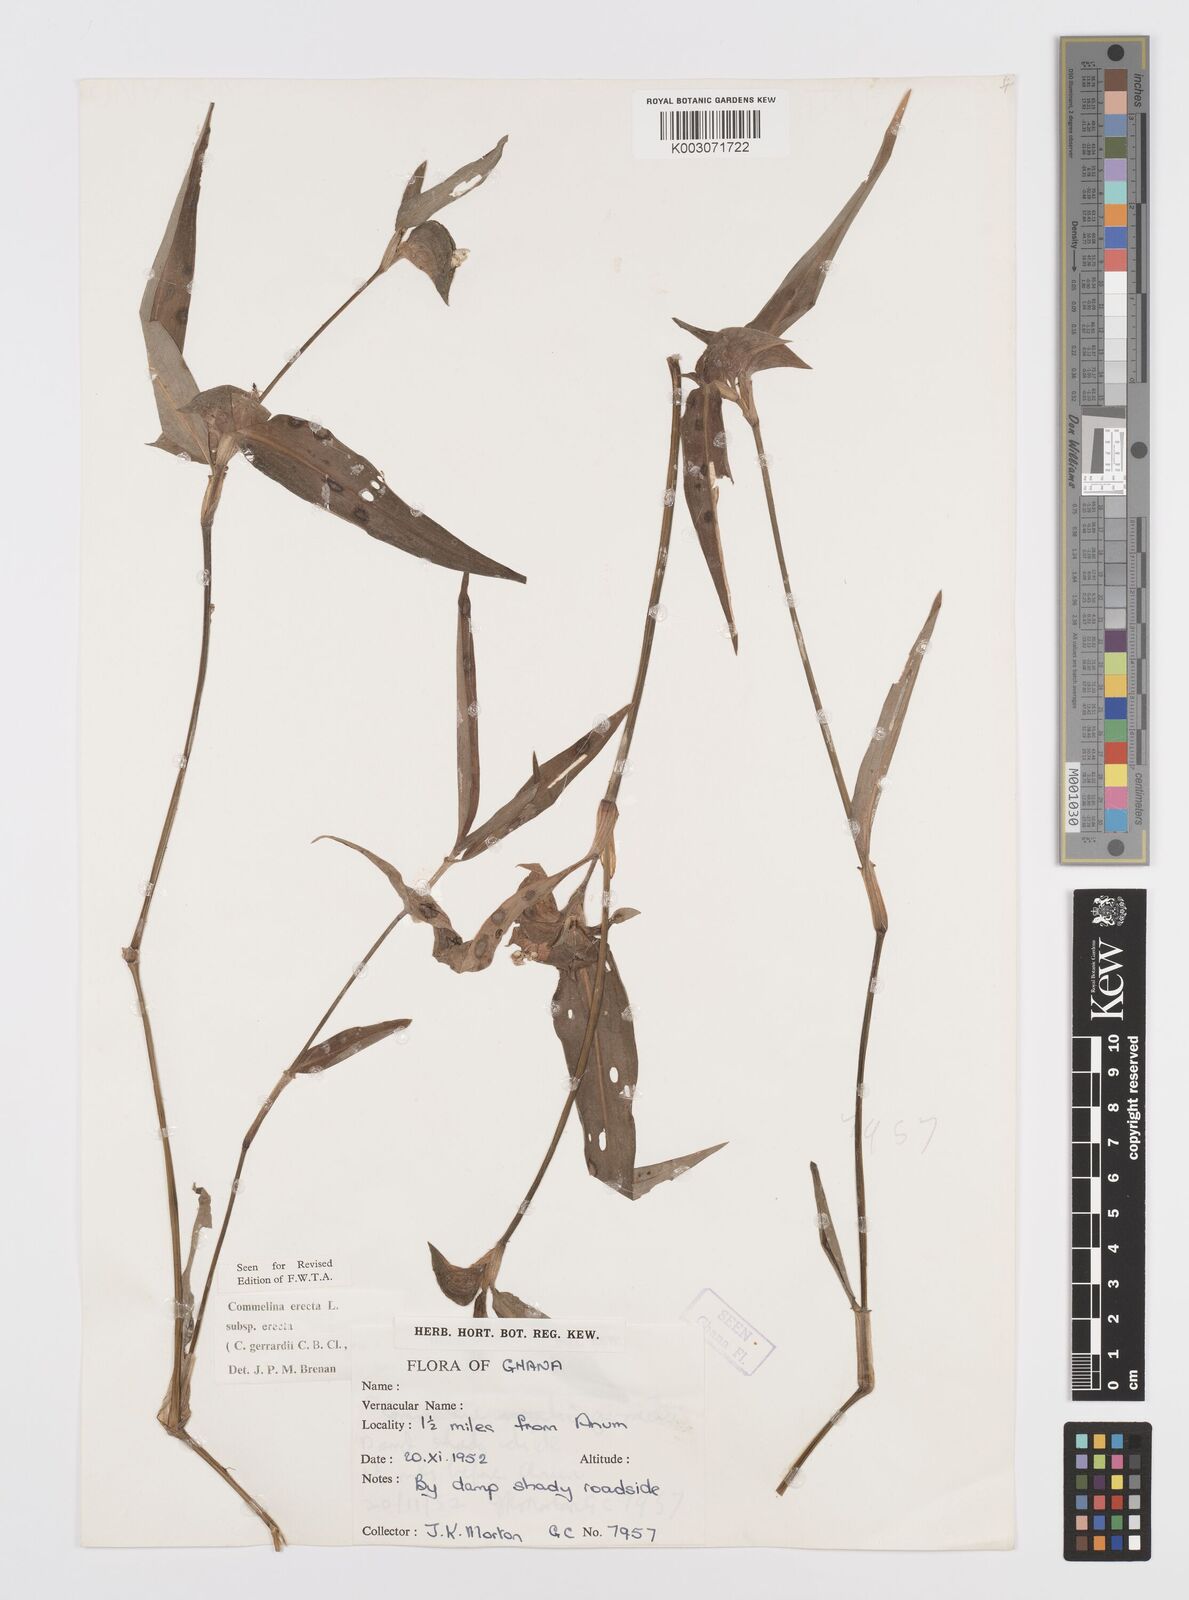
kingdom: Plantae
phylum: Tracheophyta
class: Liliopsida
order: Commelinales
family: Commelinaceae
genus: Commelina
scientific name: Commelina erecta
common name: Blousel blommetjie
